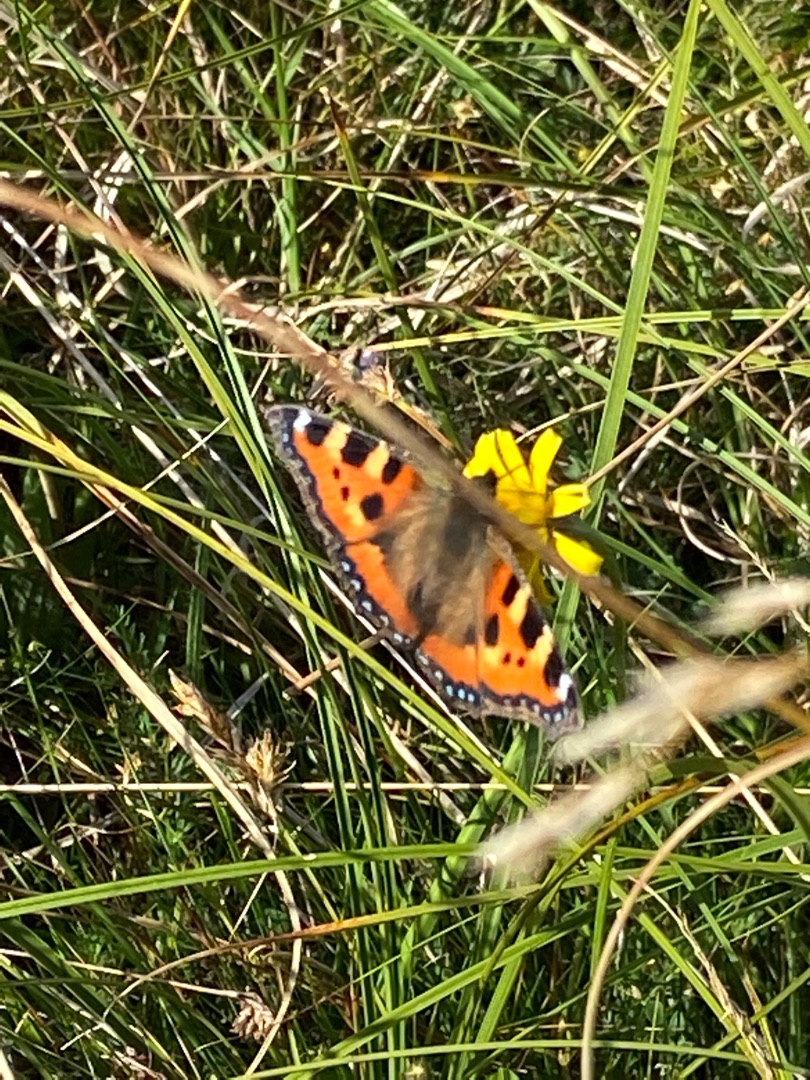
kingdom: Animalia
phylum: Arthropoda
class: Insecta
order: Lepidoptera
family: Nymphalidae
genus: Aglais
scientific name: Aglais urticae
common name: Nældens takvinge
